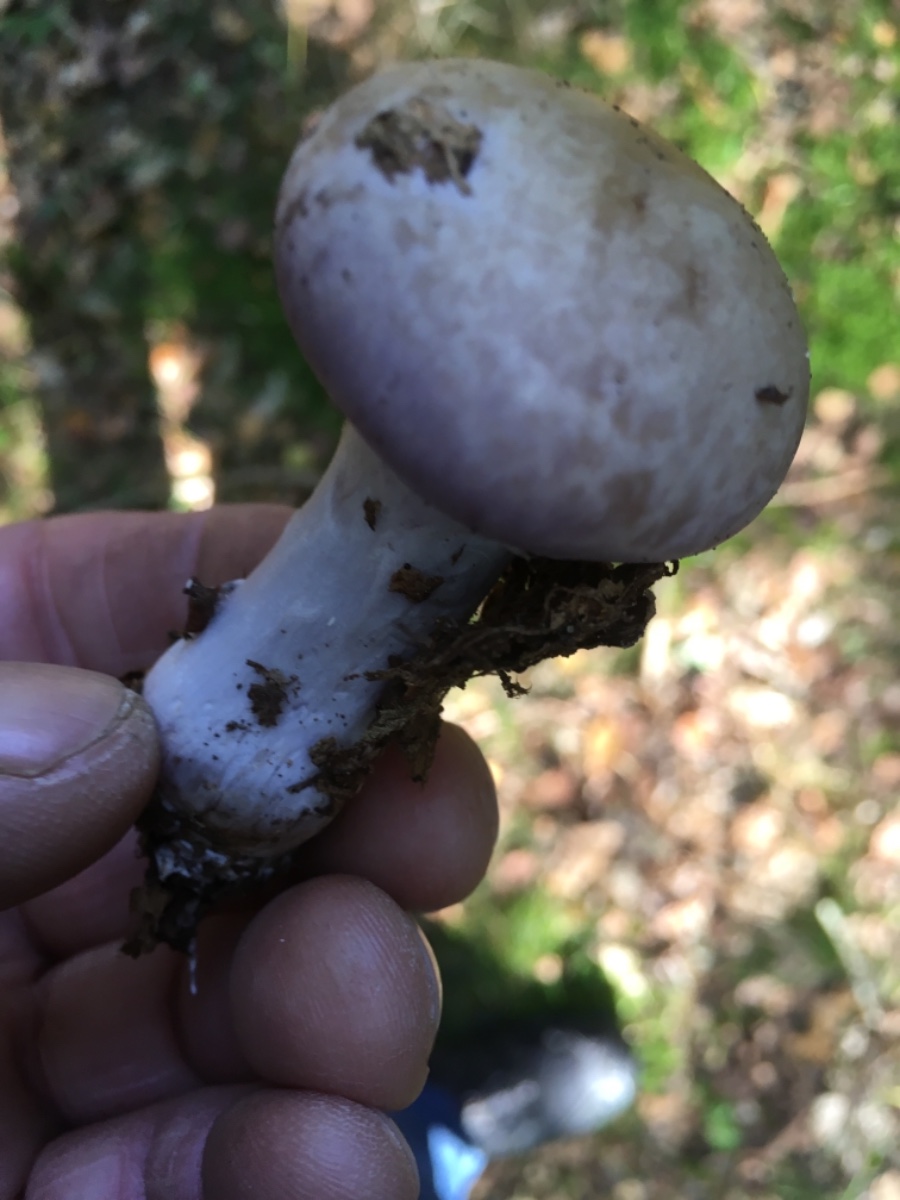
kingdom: Fungi
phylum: Basidiomycota
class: Agaricomycetes
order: Agaricales
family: Cortinariaceae
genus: Cortinarius
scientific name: Cortinarius
